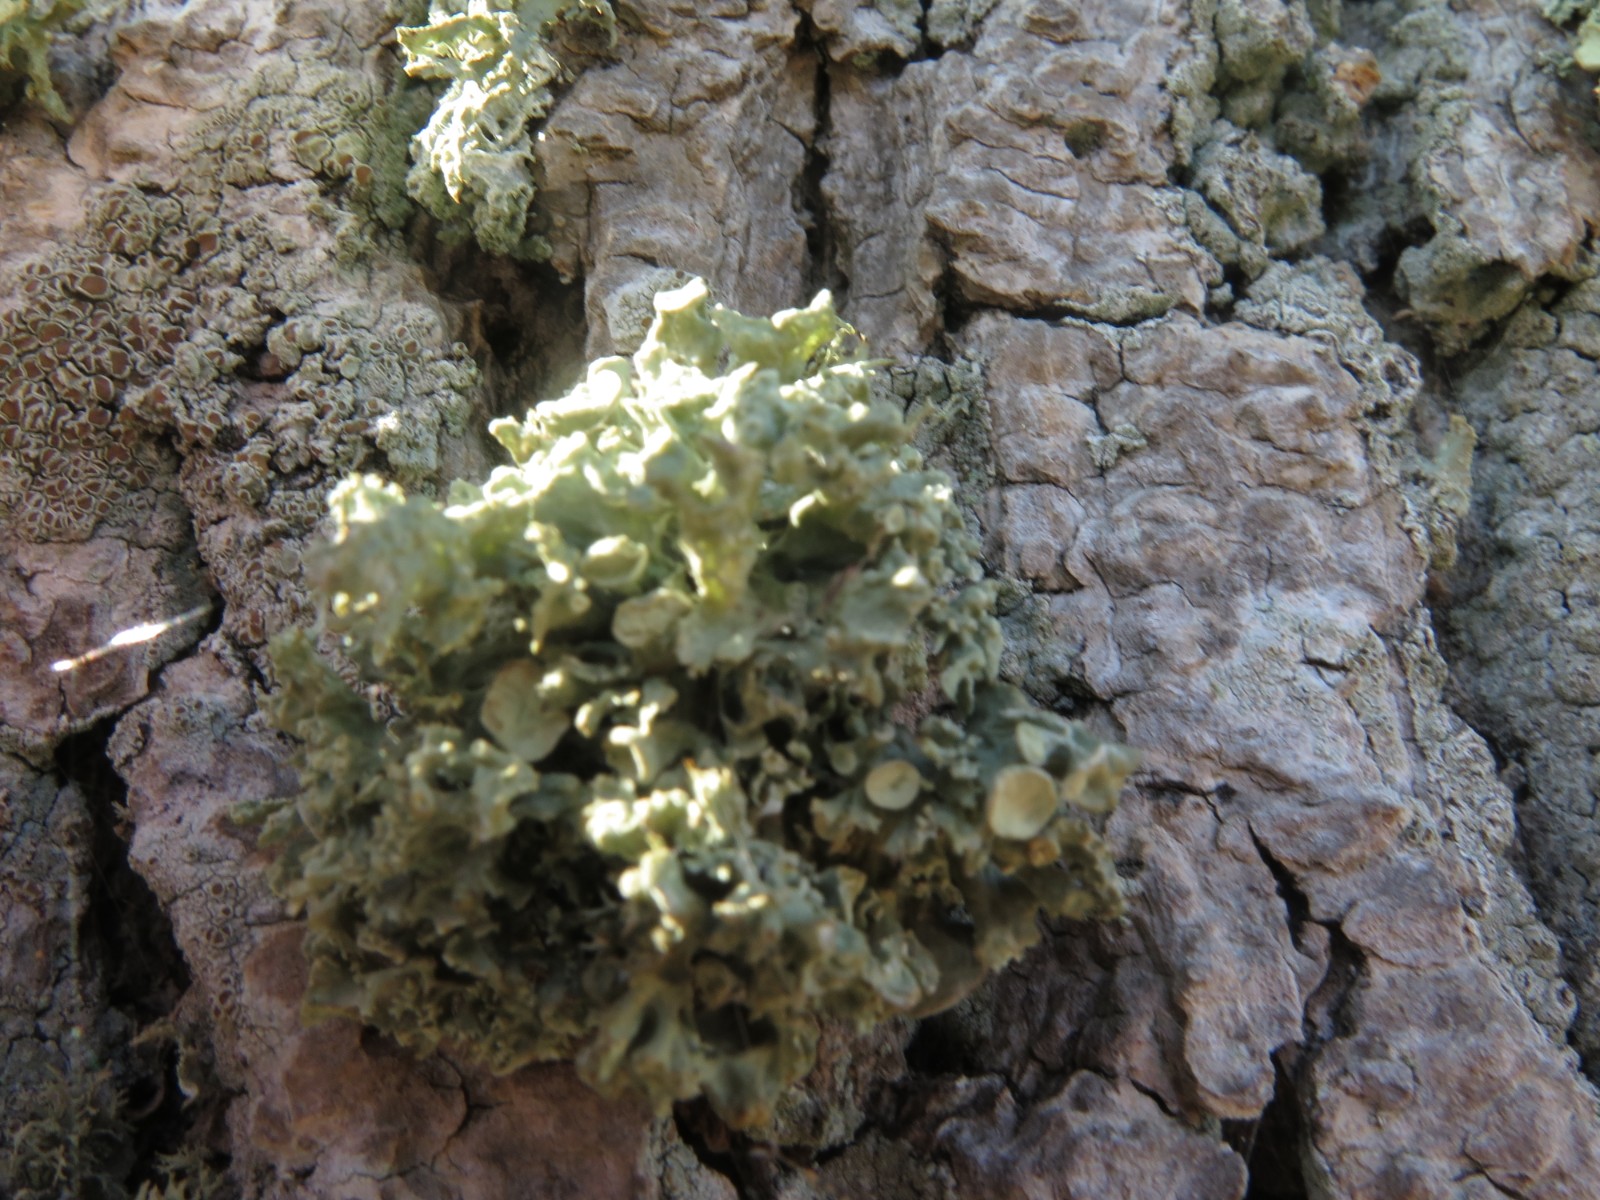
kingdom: Fungi
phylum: Ascomycota
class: Lecanoromycetes
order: Lecanorales
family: Ramalinaceae
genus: Ramalina
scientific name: Ramalina fastigiata
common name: tue-grenlav
